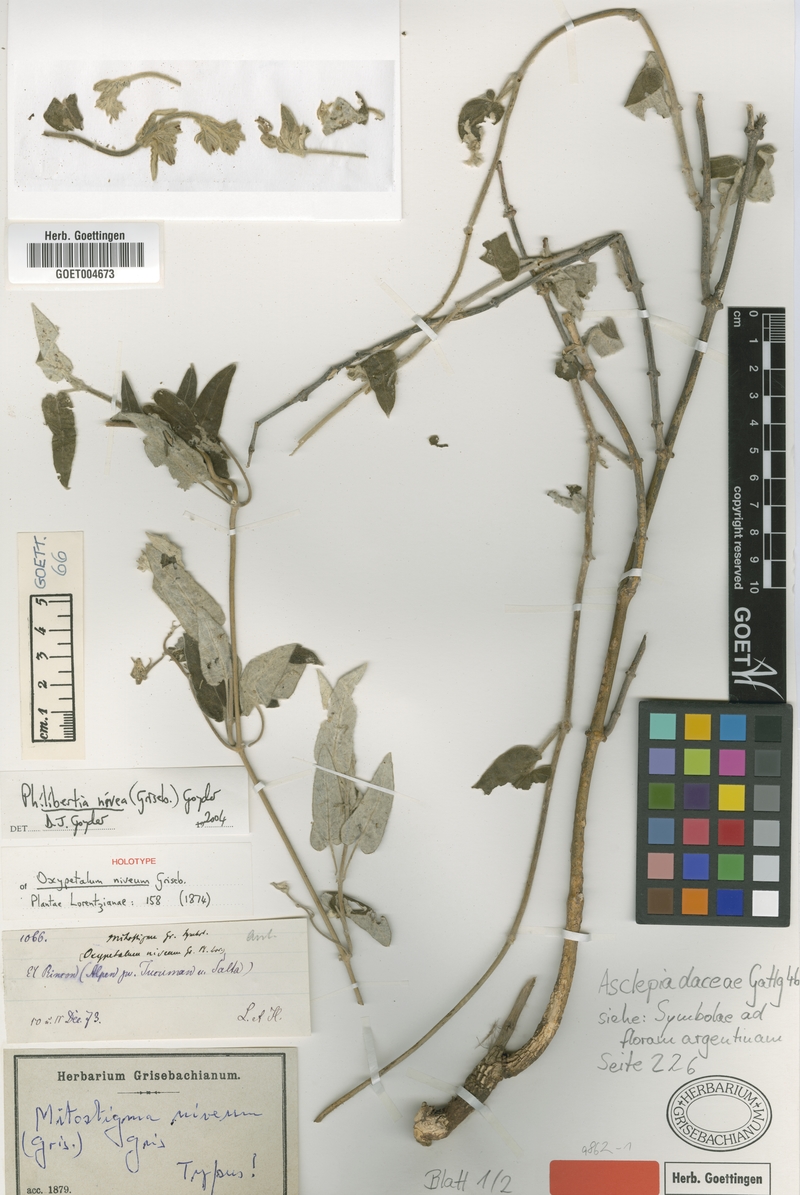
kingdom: Plantae
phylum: Tracheophyta
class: Magnoliopsida
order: Gentianales
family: Apocynaceae
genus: Philibertia
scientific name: Philibertia nivea
